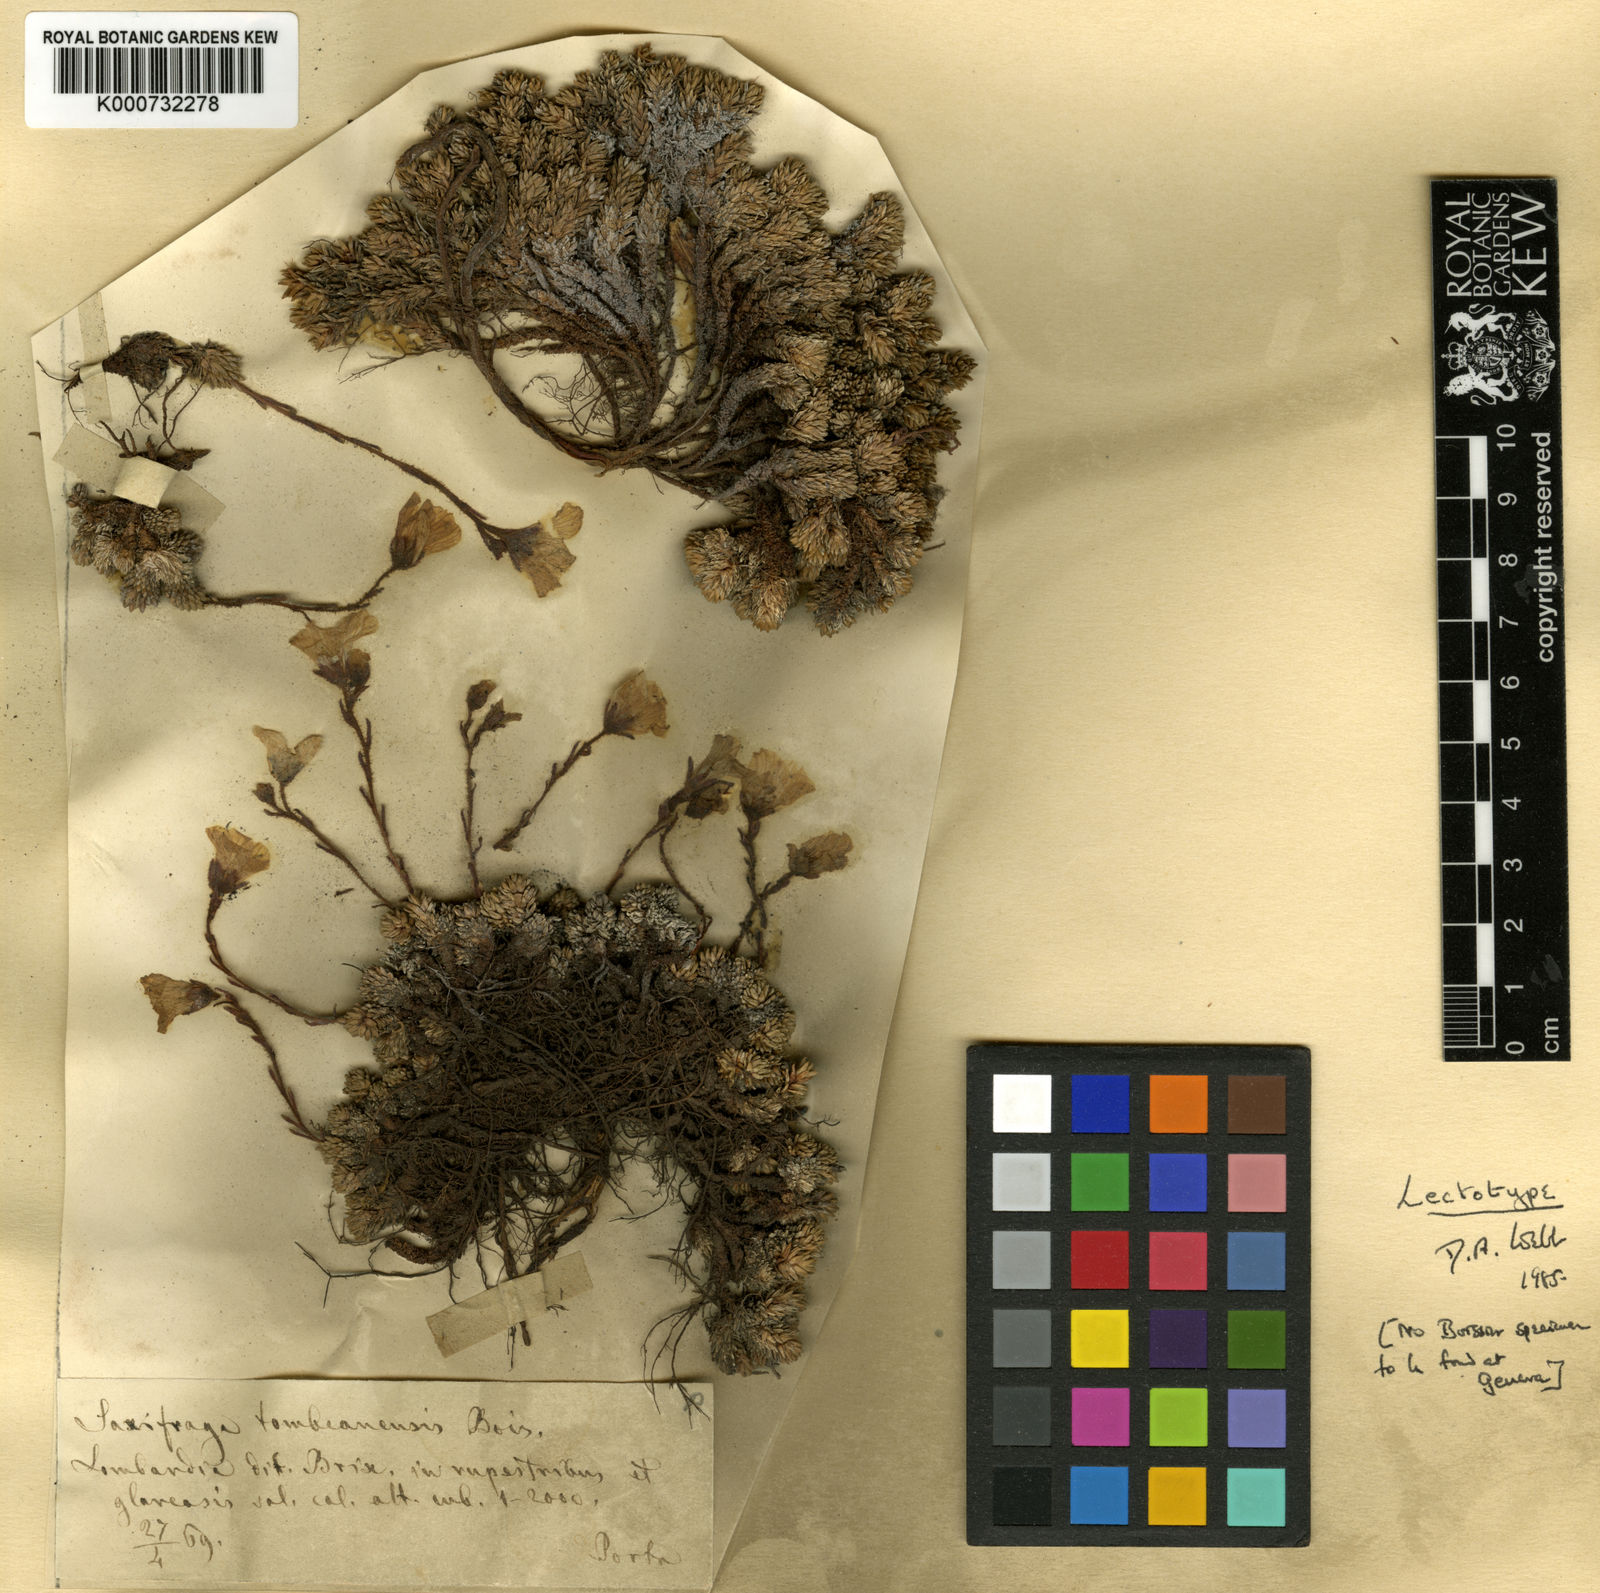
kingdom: Plantae
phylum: Tracheophyta
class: Magnoliopsida
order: Saxifragales
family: Saxifragaceae
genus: Saxifraga
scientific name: Saxifraga tombeanensis
